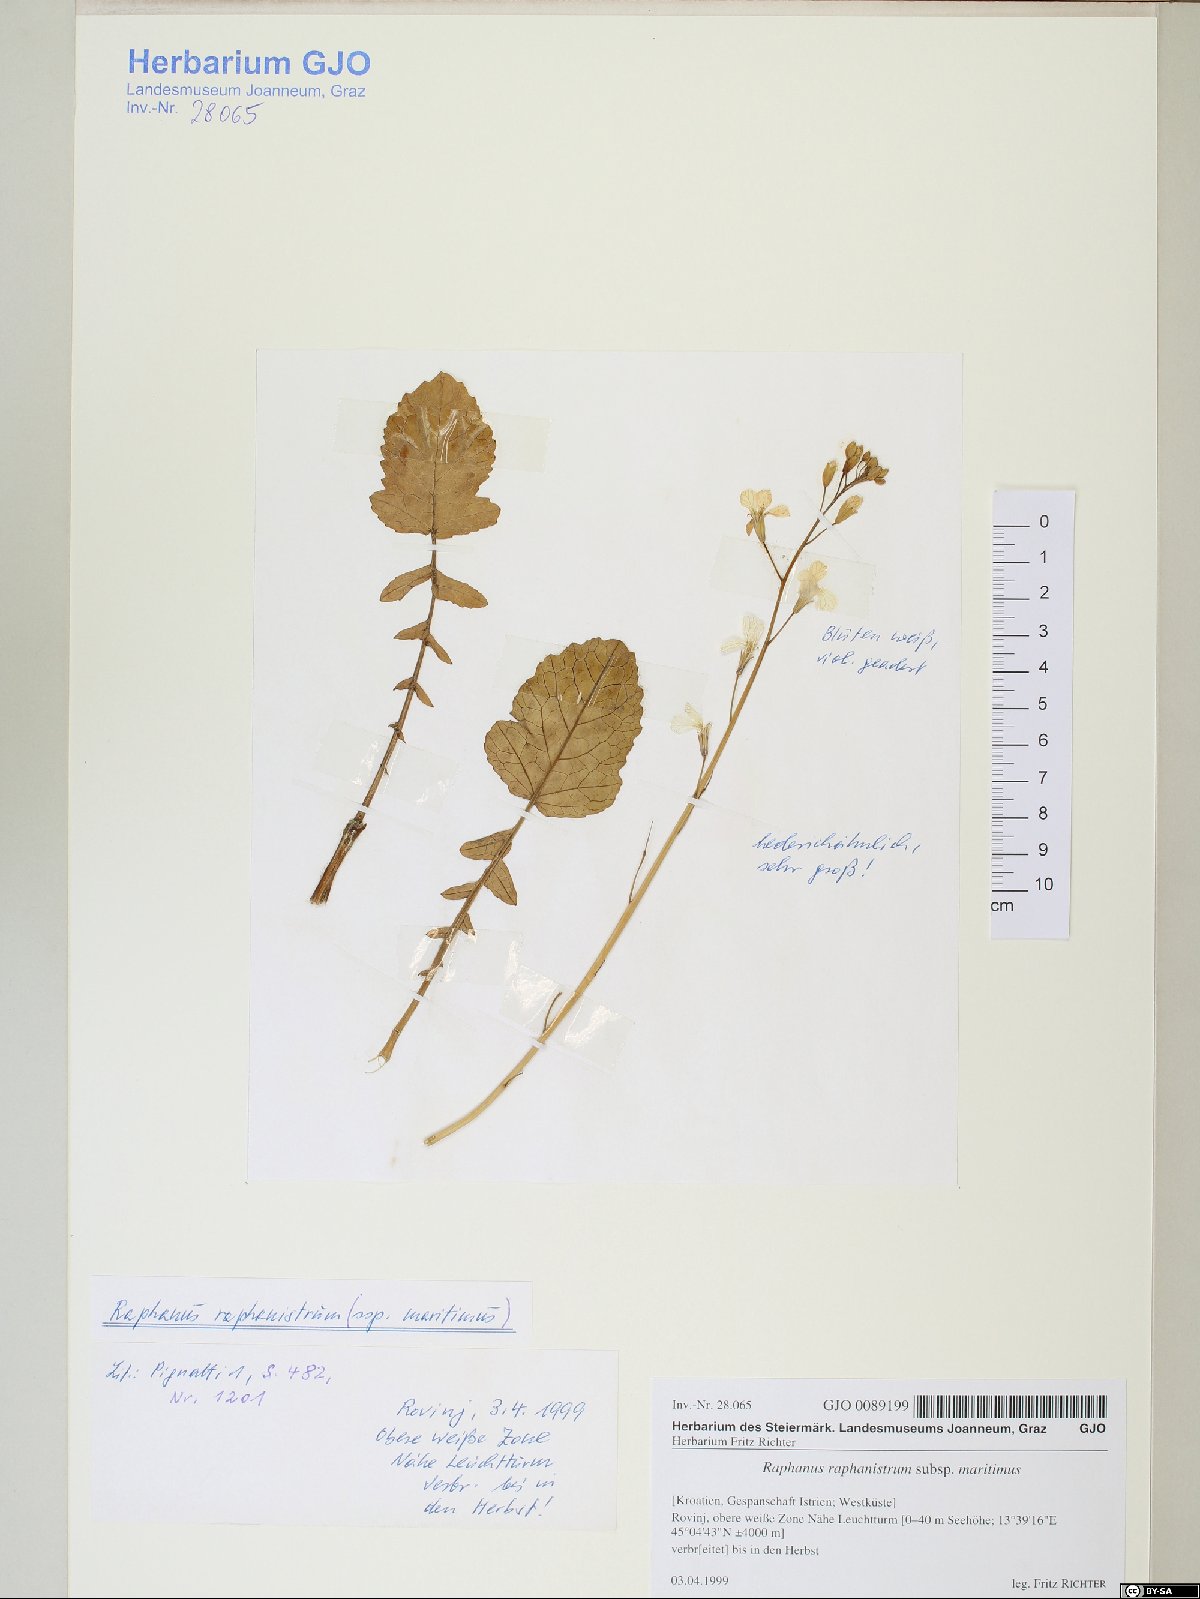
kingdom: Plantae
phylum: Tracheophyta
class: Magnoliopsida
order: Brassicales
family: Brassicaceae
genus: Raphanus
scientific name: Raphanus raphanistrum
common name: Wild radish
